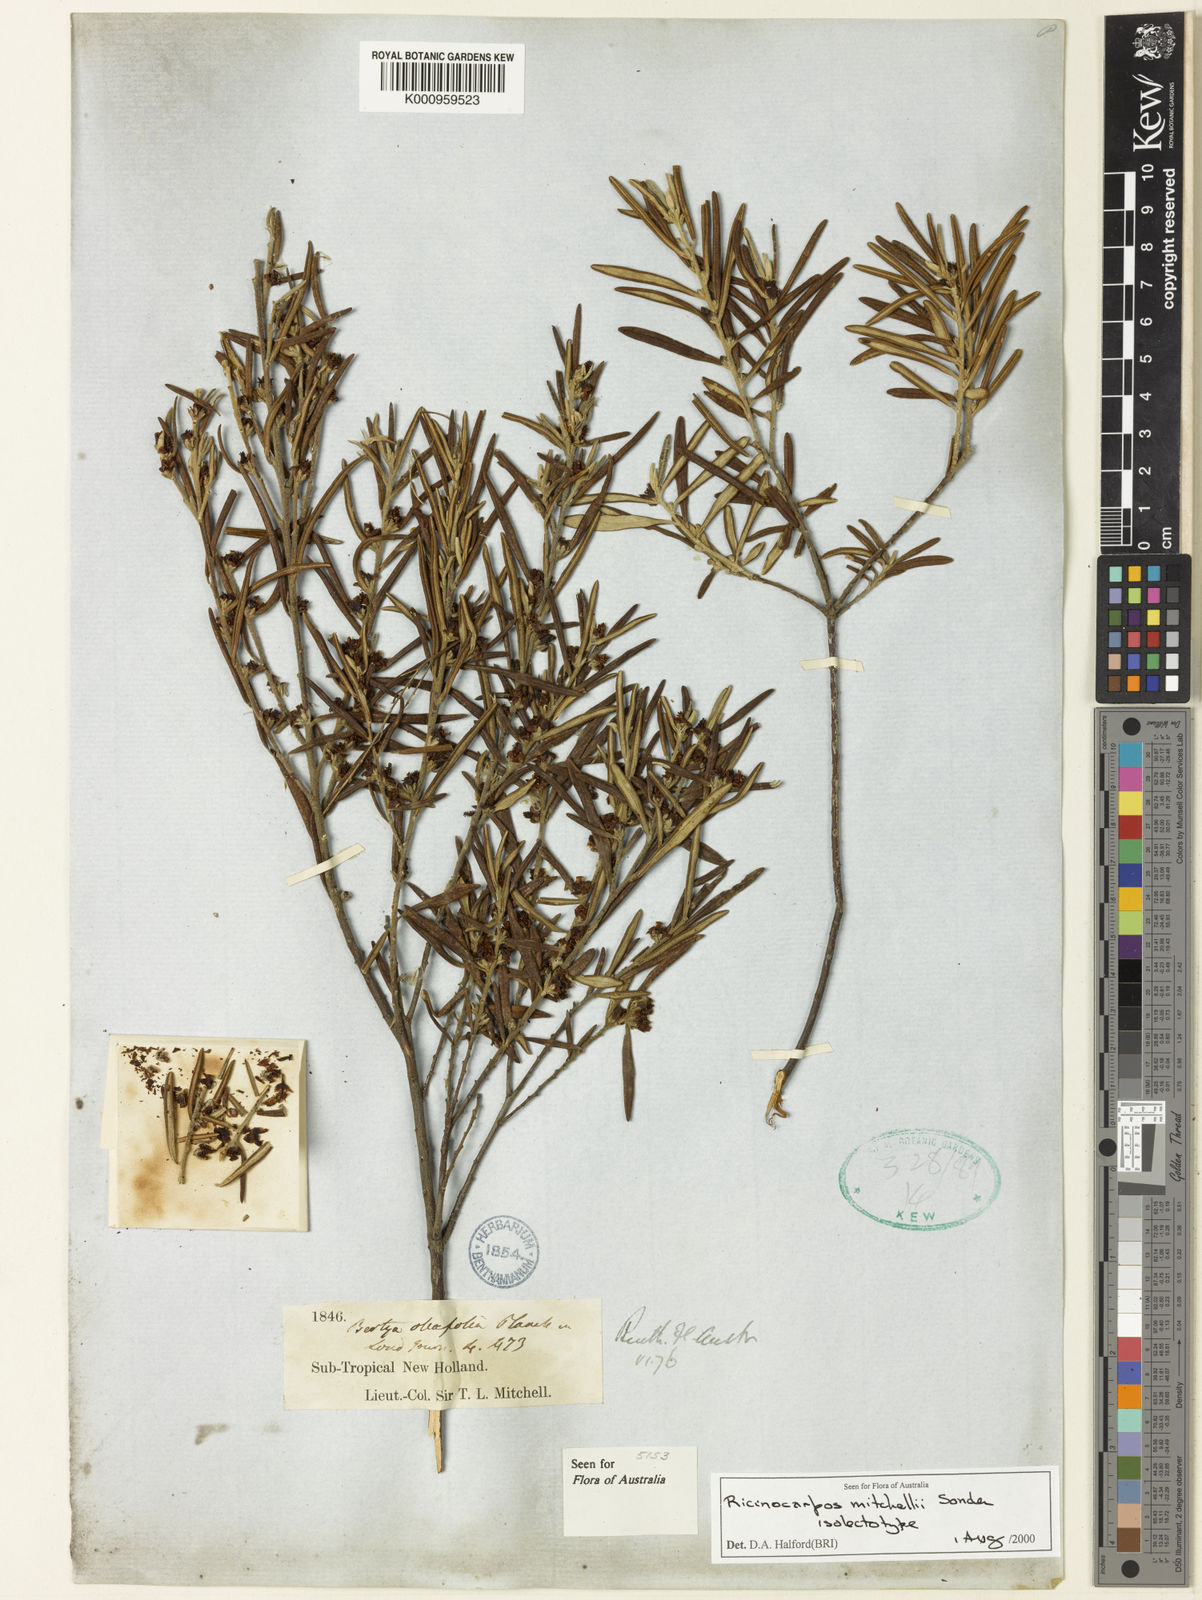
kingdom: Plantae
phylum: Tracheophyta
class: Magnoliopsida
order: Malpighiales
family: Euphorbiaceae
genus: Bertya
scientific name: Bertya oleifolia
